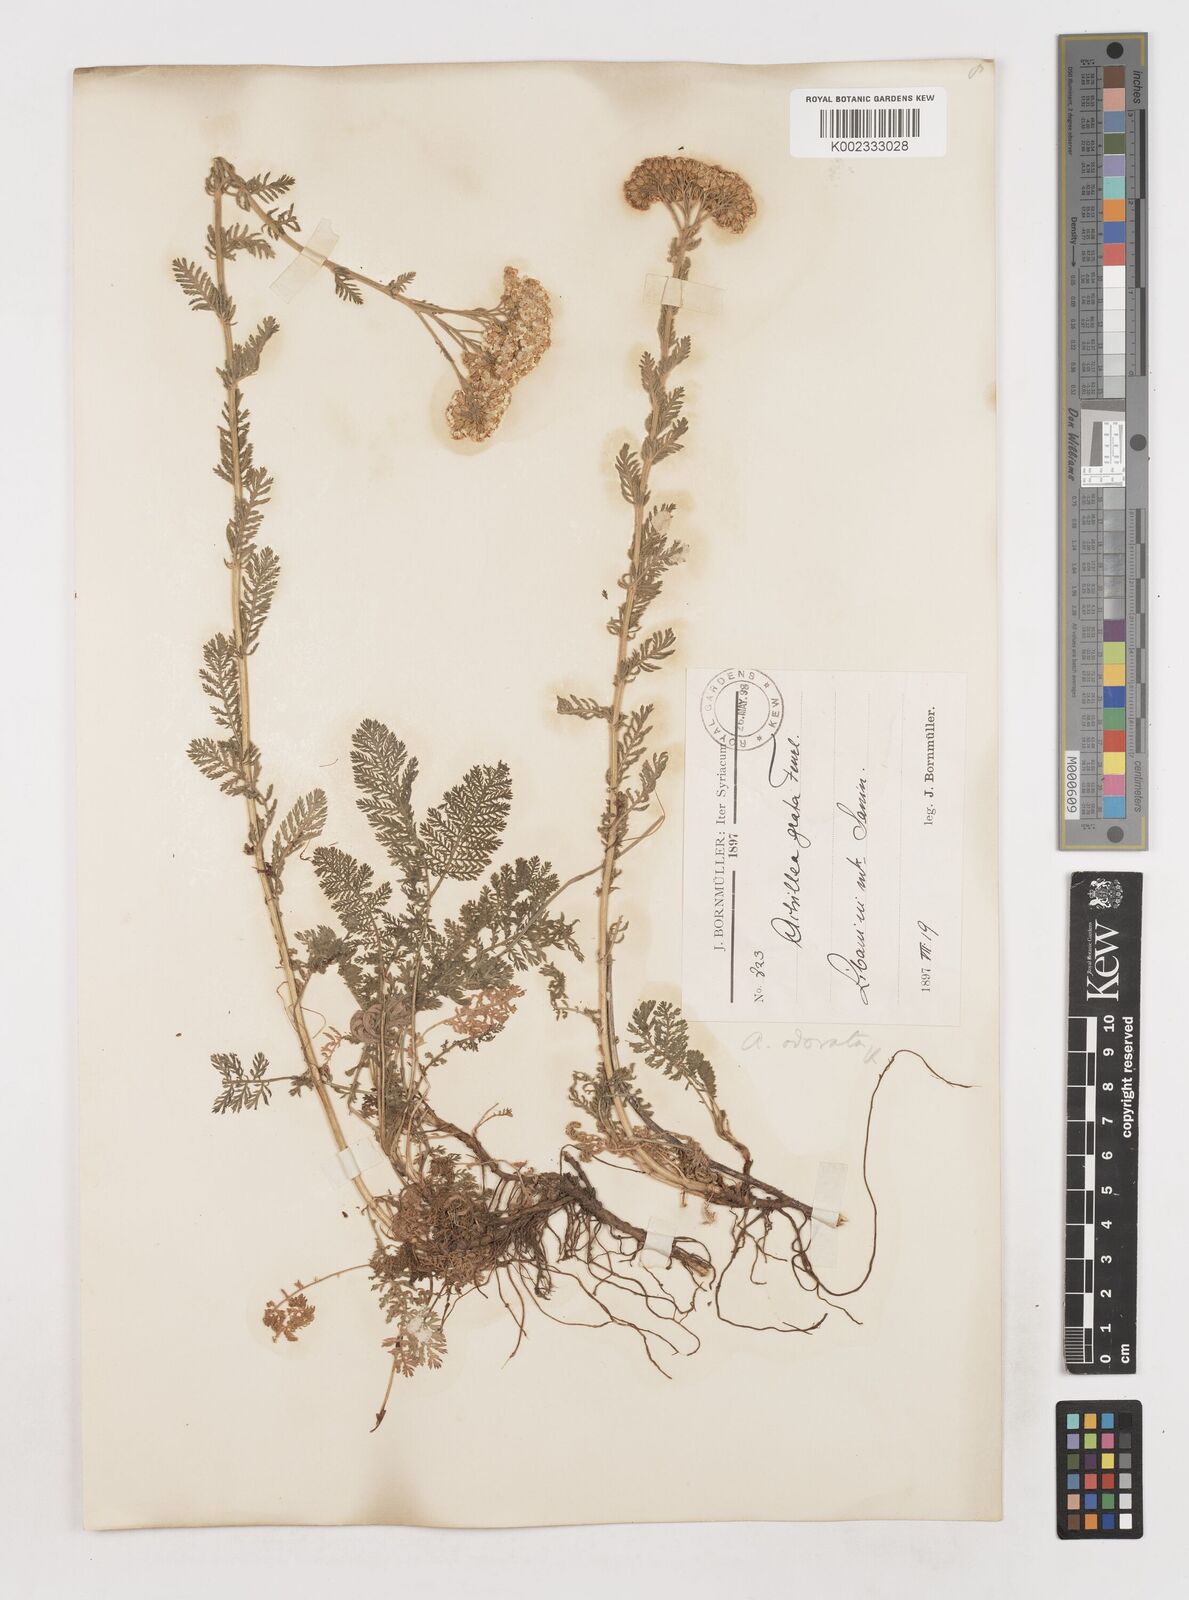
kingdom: Plantae
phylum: Tracheophyta
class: Magnoliopsida
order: Asterales
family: Asteraceae
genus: Achillea
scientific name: Achillea odorata
